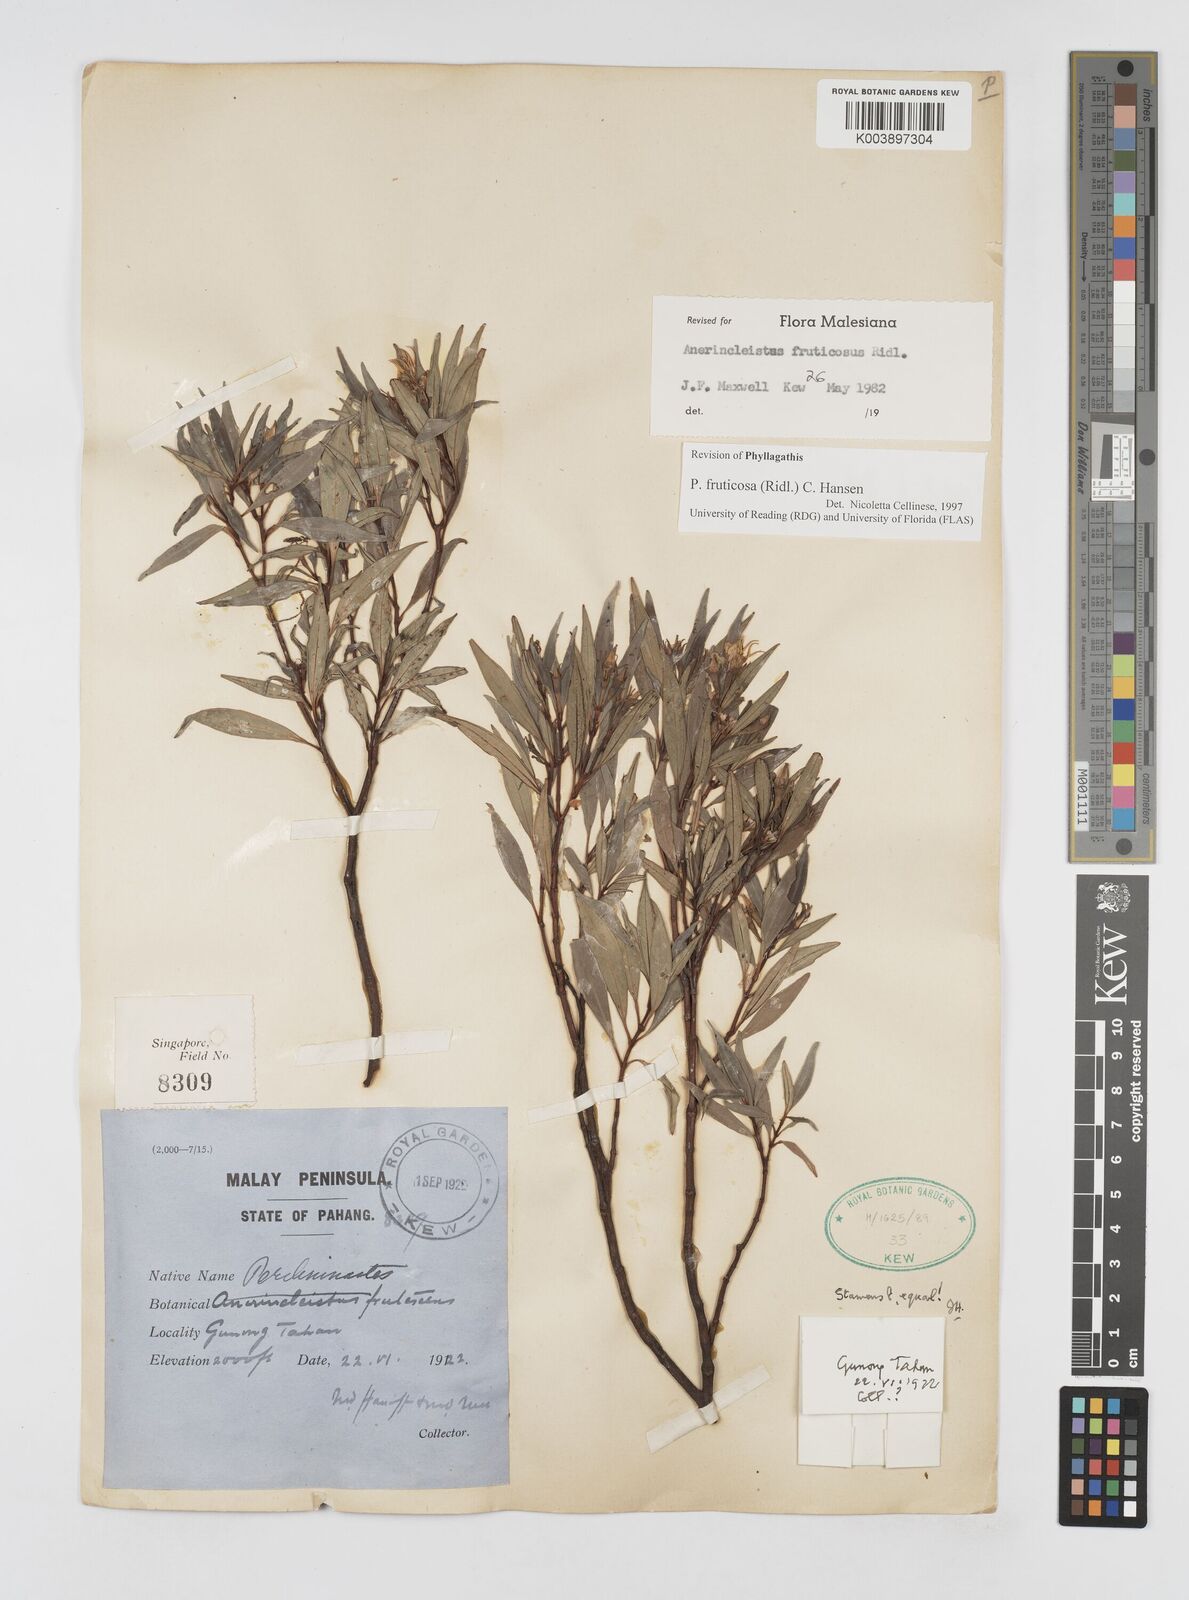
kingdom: Plantae
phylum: Tracheophyta
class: Magnoliopsida
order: Myrtales
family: Melastomataceae
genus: Anerincleistus
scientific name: Anerincleistus fruticosus
